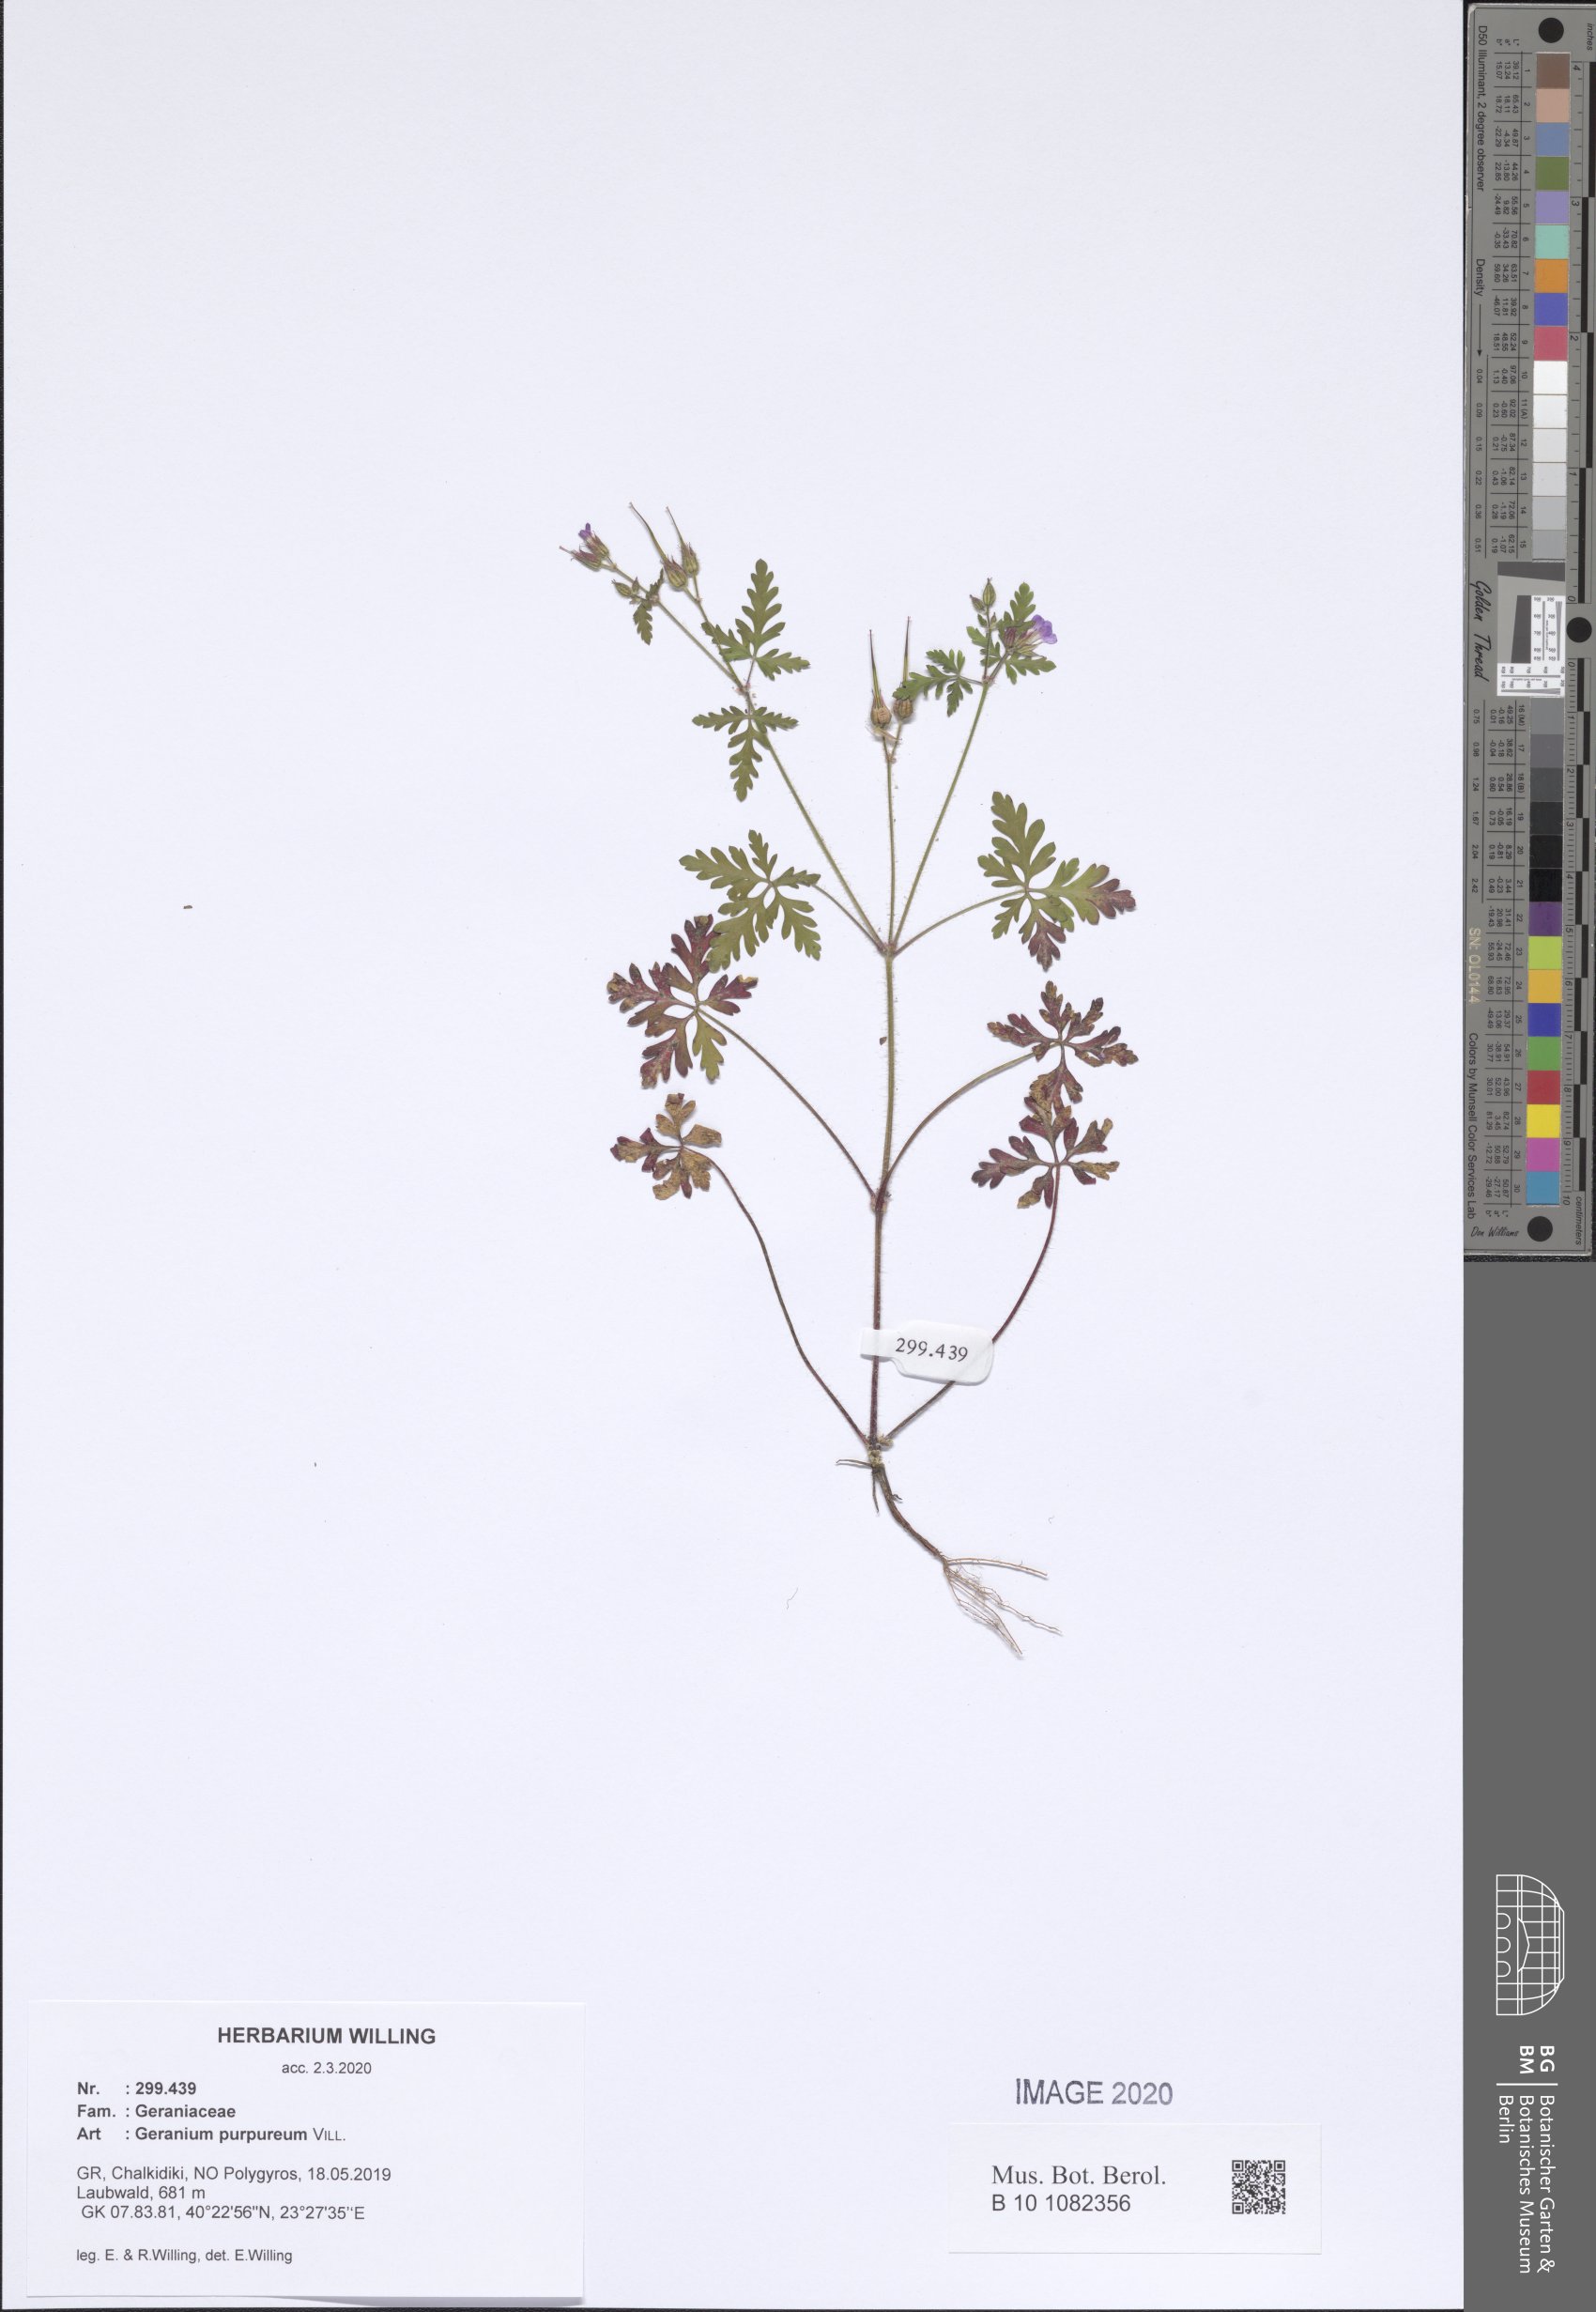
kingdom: Plantae
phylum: Tracheophyta
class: Magnoliopsida
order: Geraniales
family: Geraniaceae
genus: Geranium
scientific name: Geranium purpureum
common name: Little-robin
